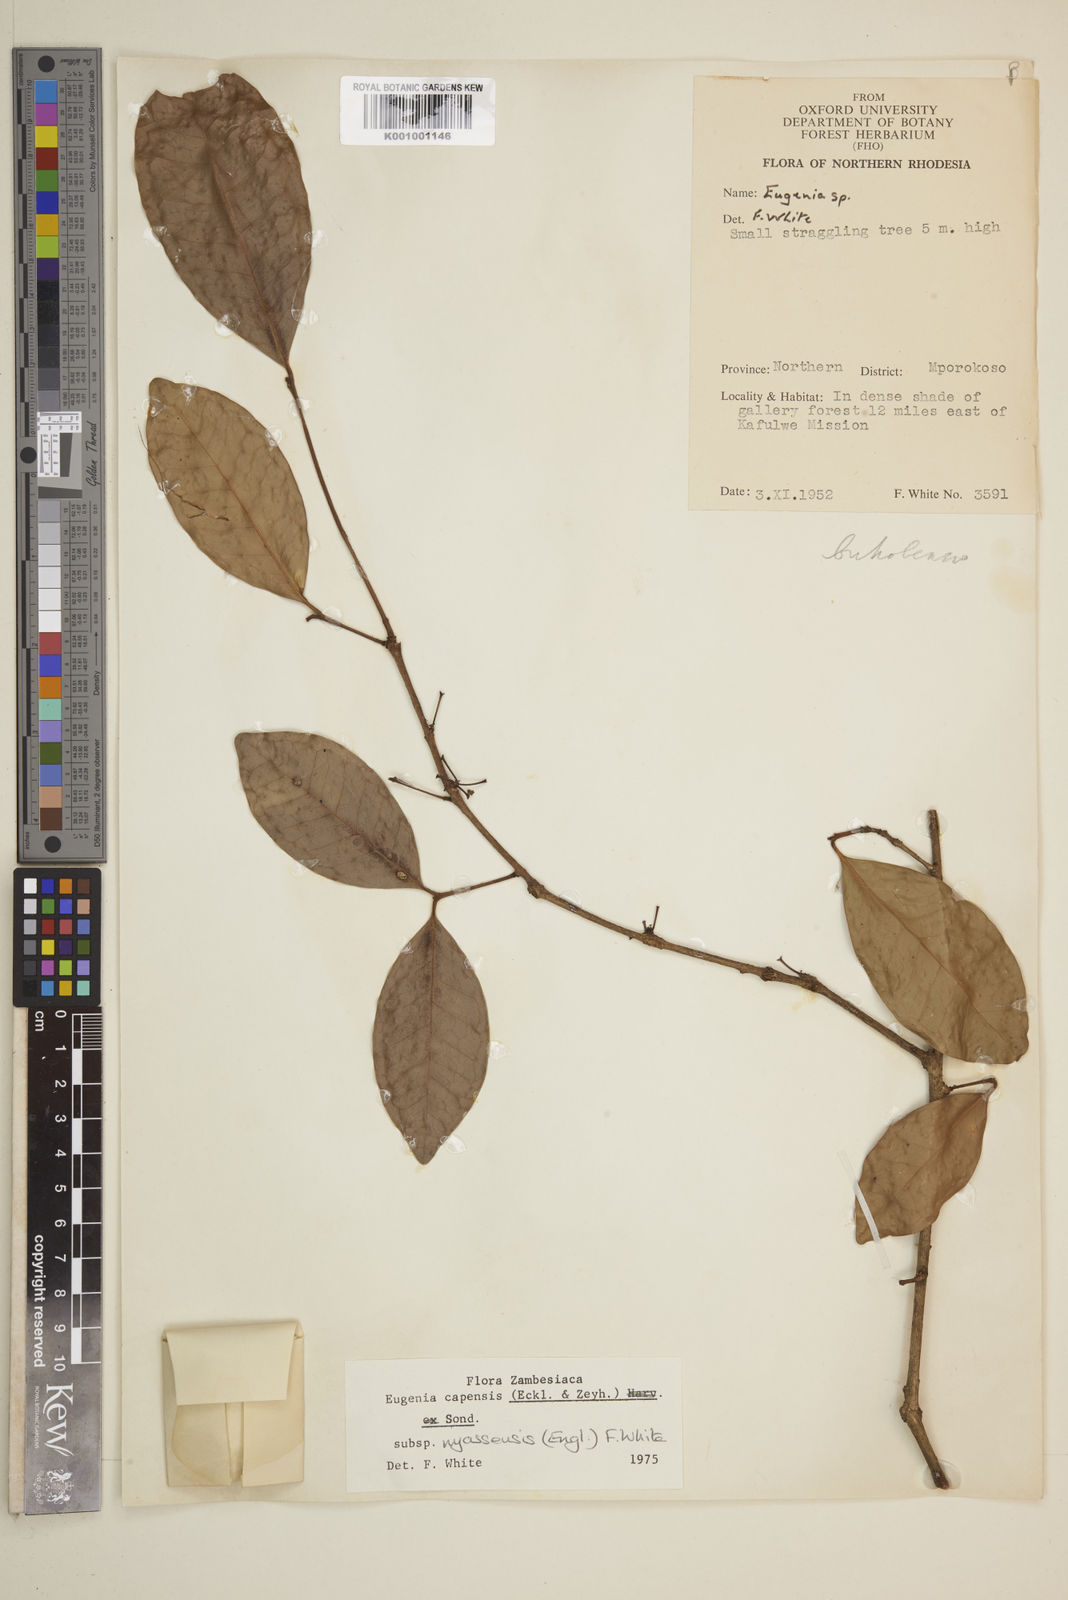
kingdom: Plantae
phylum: Tracheophyta
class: Magnoliopsida
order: Myrtales
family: Myrtaceae
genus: Eugenia
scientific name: Eugenia capensis
